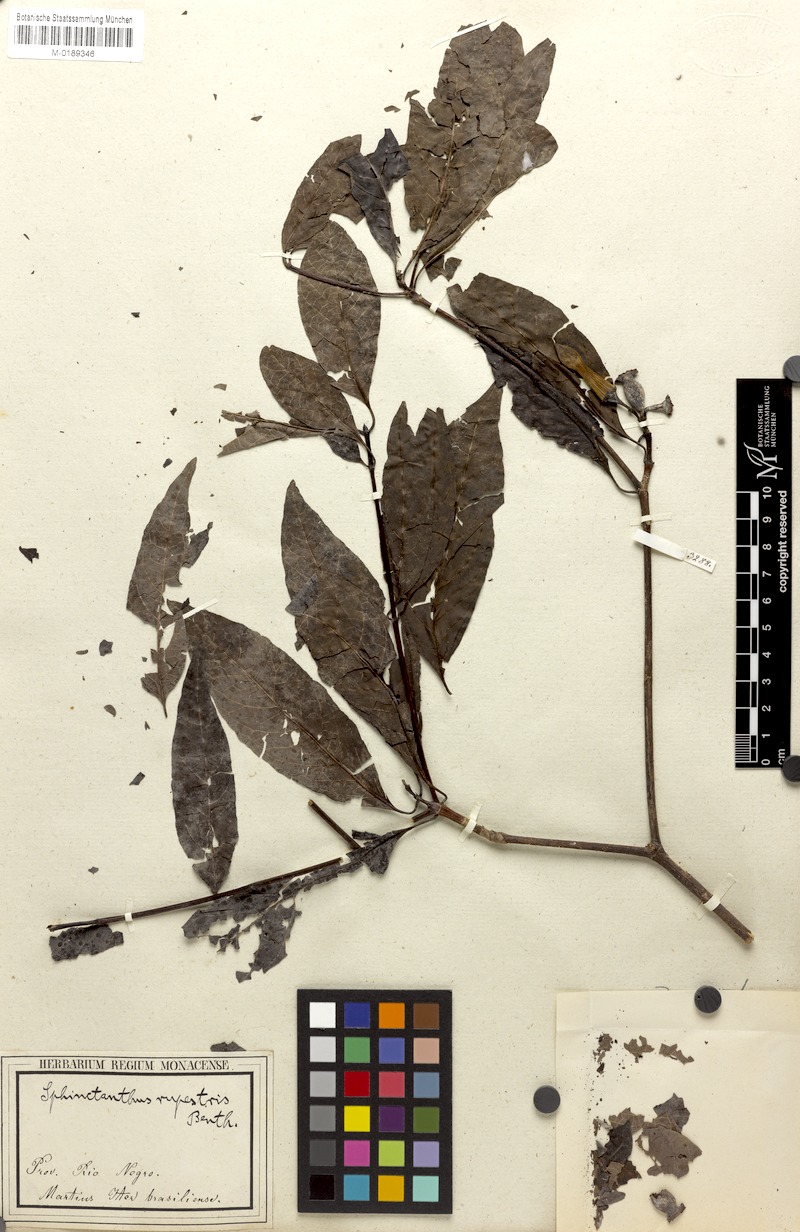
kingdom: Plantae
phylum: Tracheophyta
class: Magnoliopsida
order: Gentianales
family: Rubiaceae
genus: Sphinctanthus
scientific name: Sphinctanthus striiflorus
